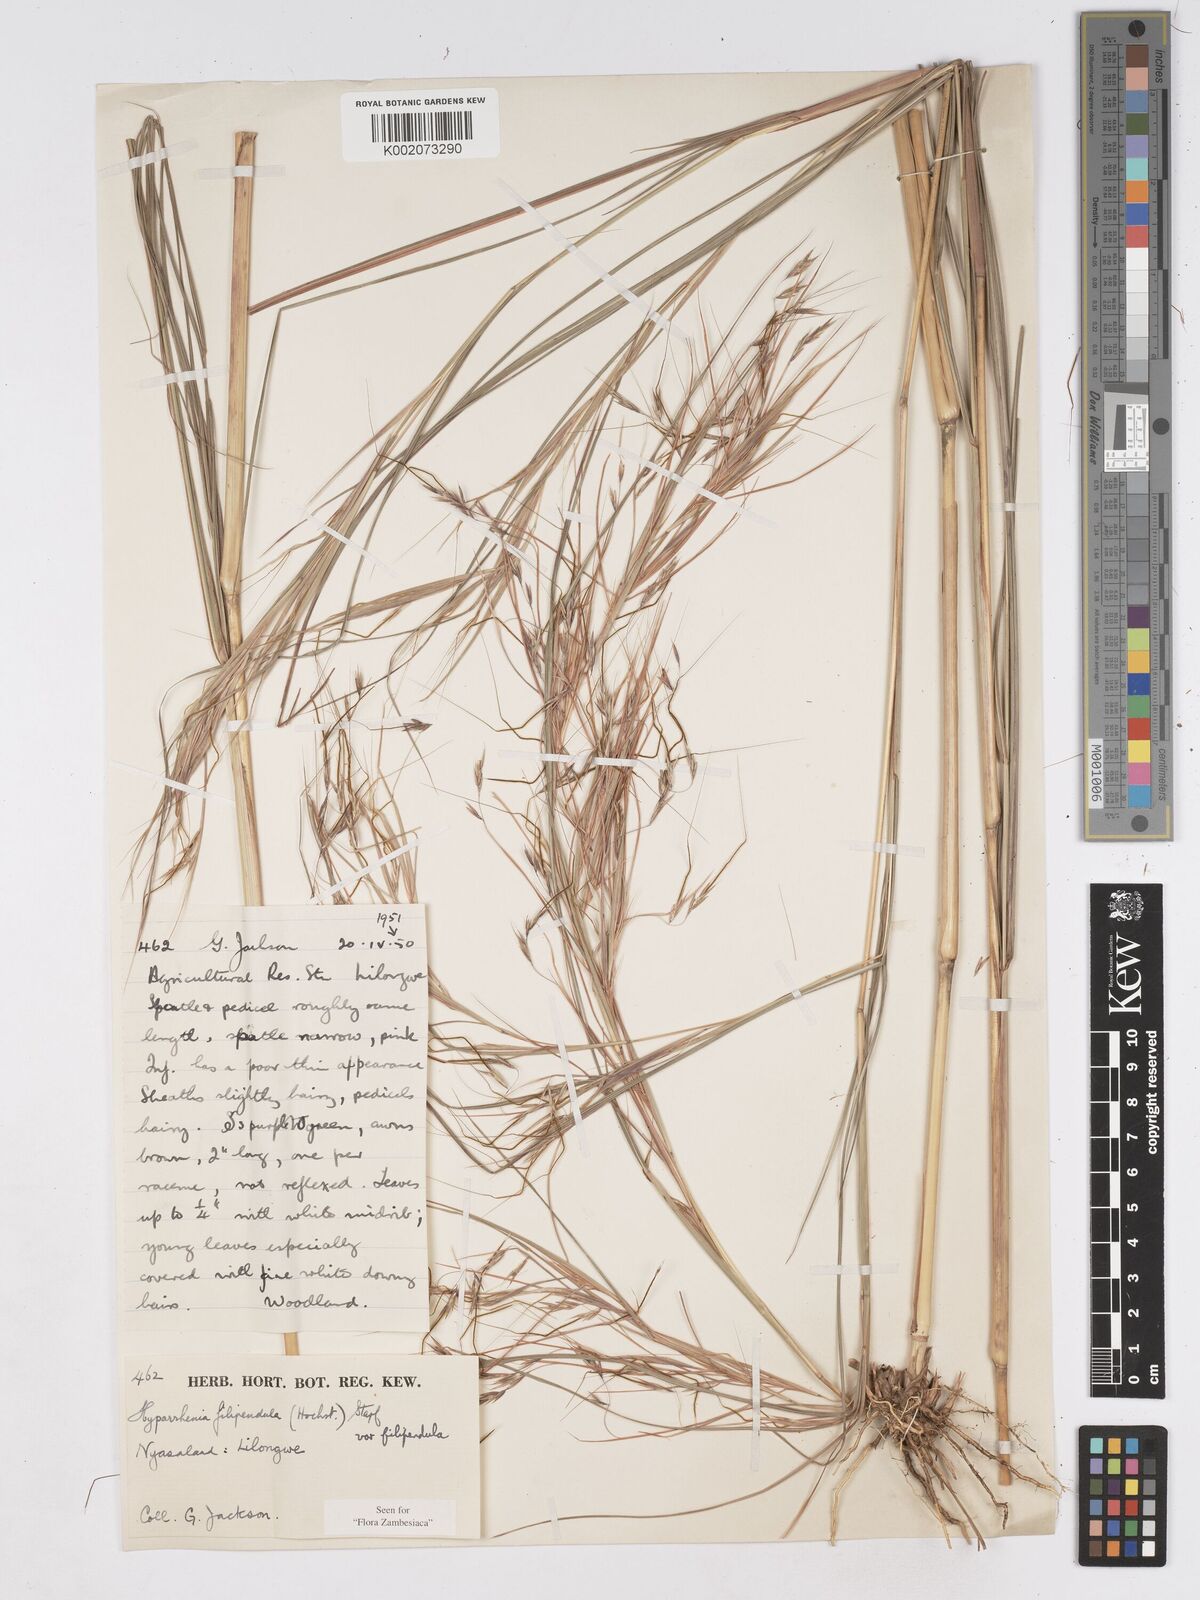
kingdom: Plantae
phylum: Tracheophyta
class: Liliopsida
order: Poales
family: Poaceae
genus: Hyparrhenia
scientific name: Hyparrhenia filipendula
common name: Tambookie grass
